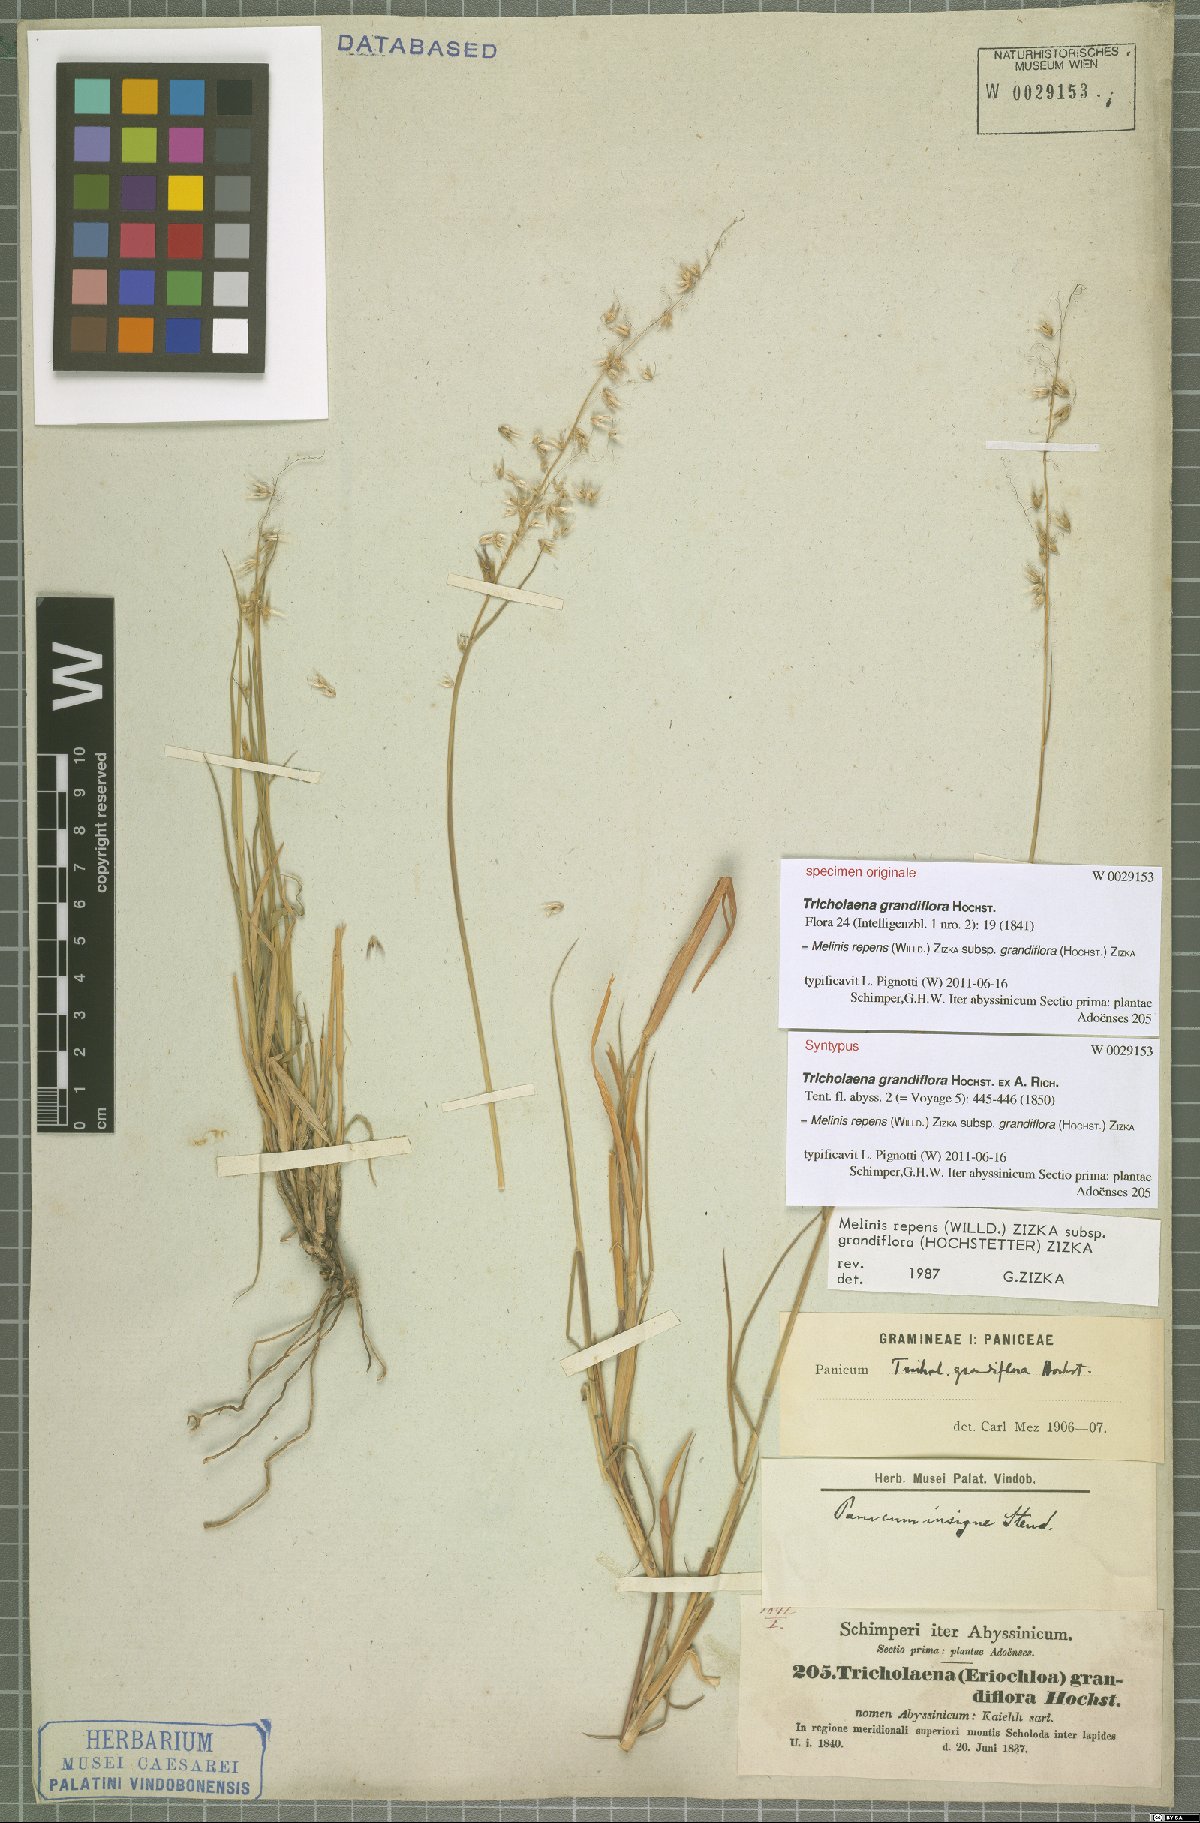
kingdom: Plantae
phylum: Tracheophyta
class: Liliopsida
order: Poales
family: Poaceae
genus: Melinis
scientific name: Melinis repens
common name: Rose natal grass
